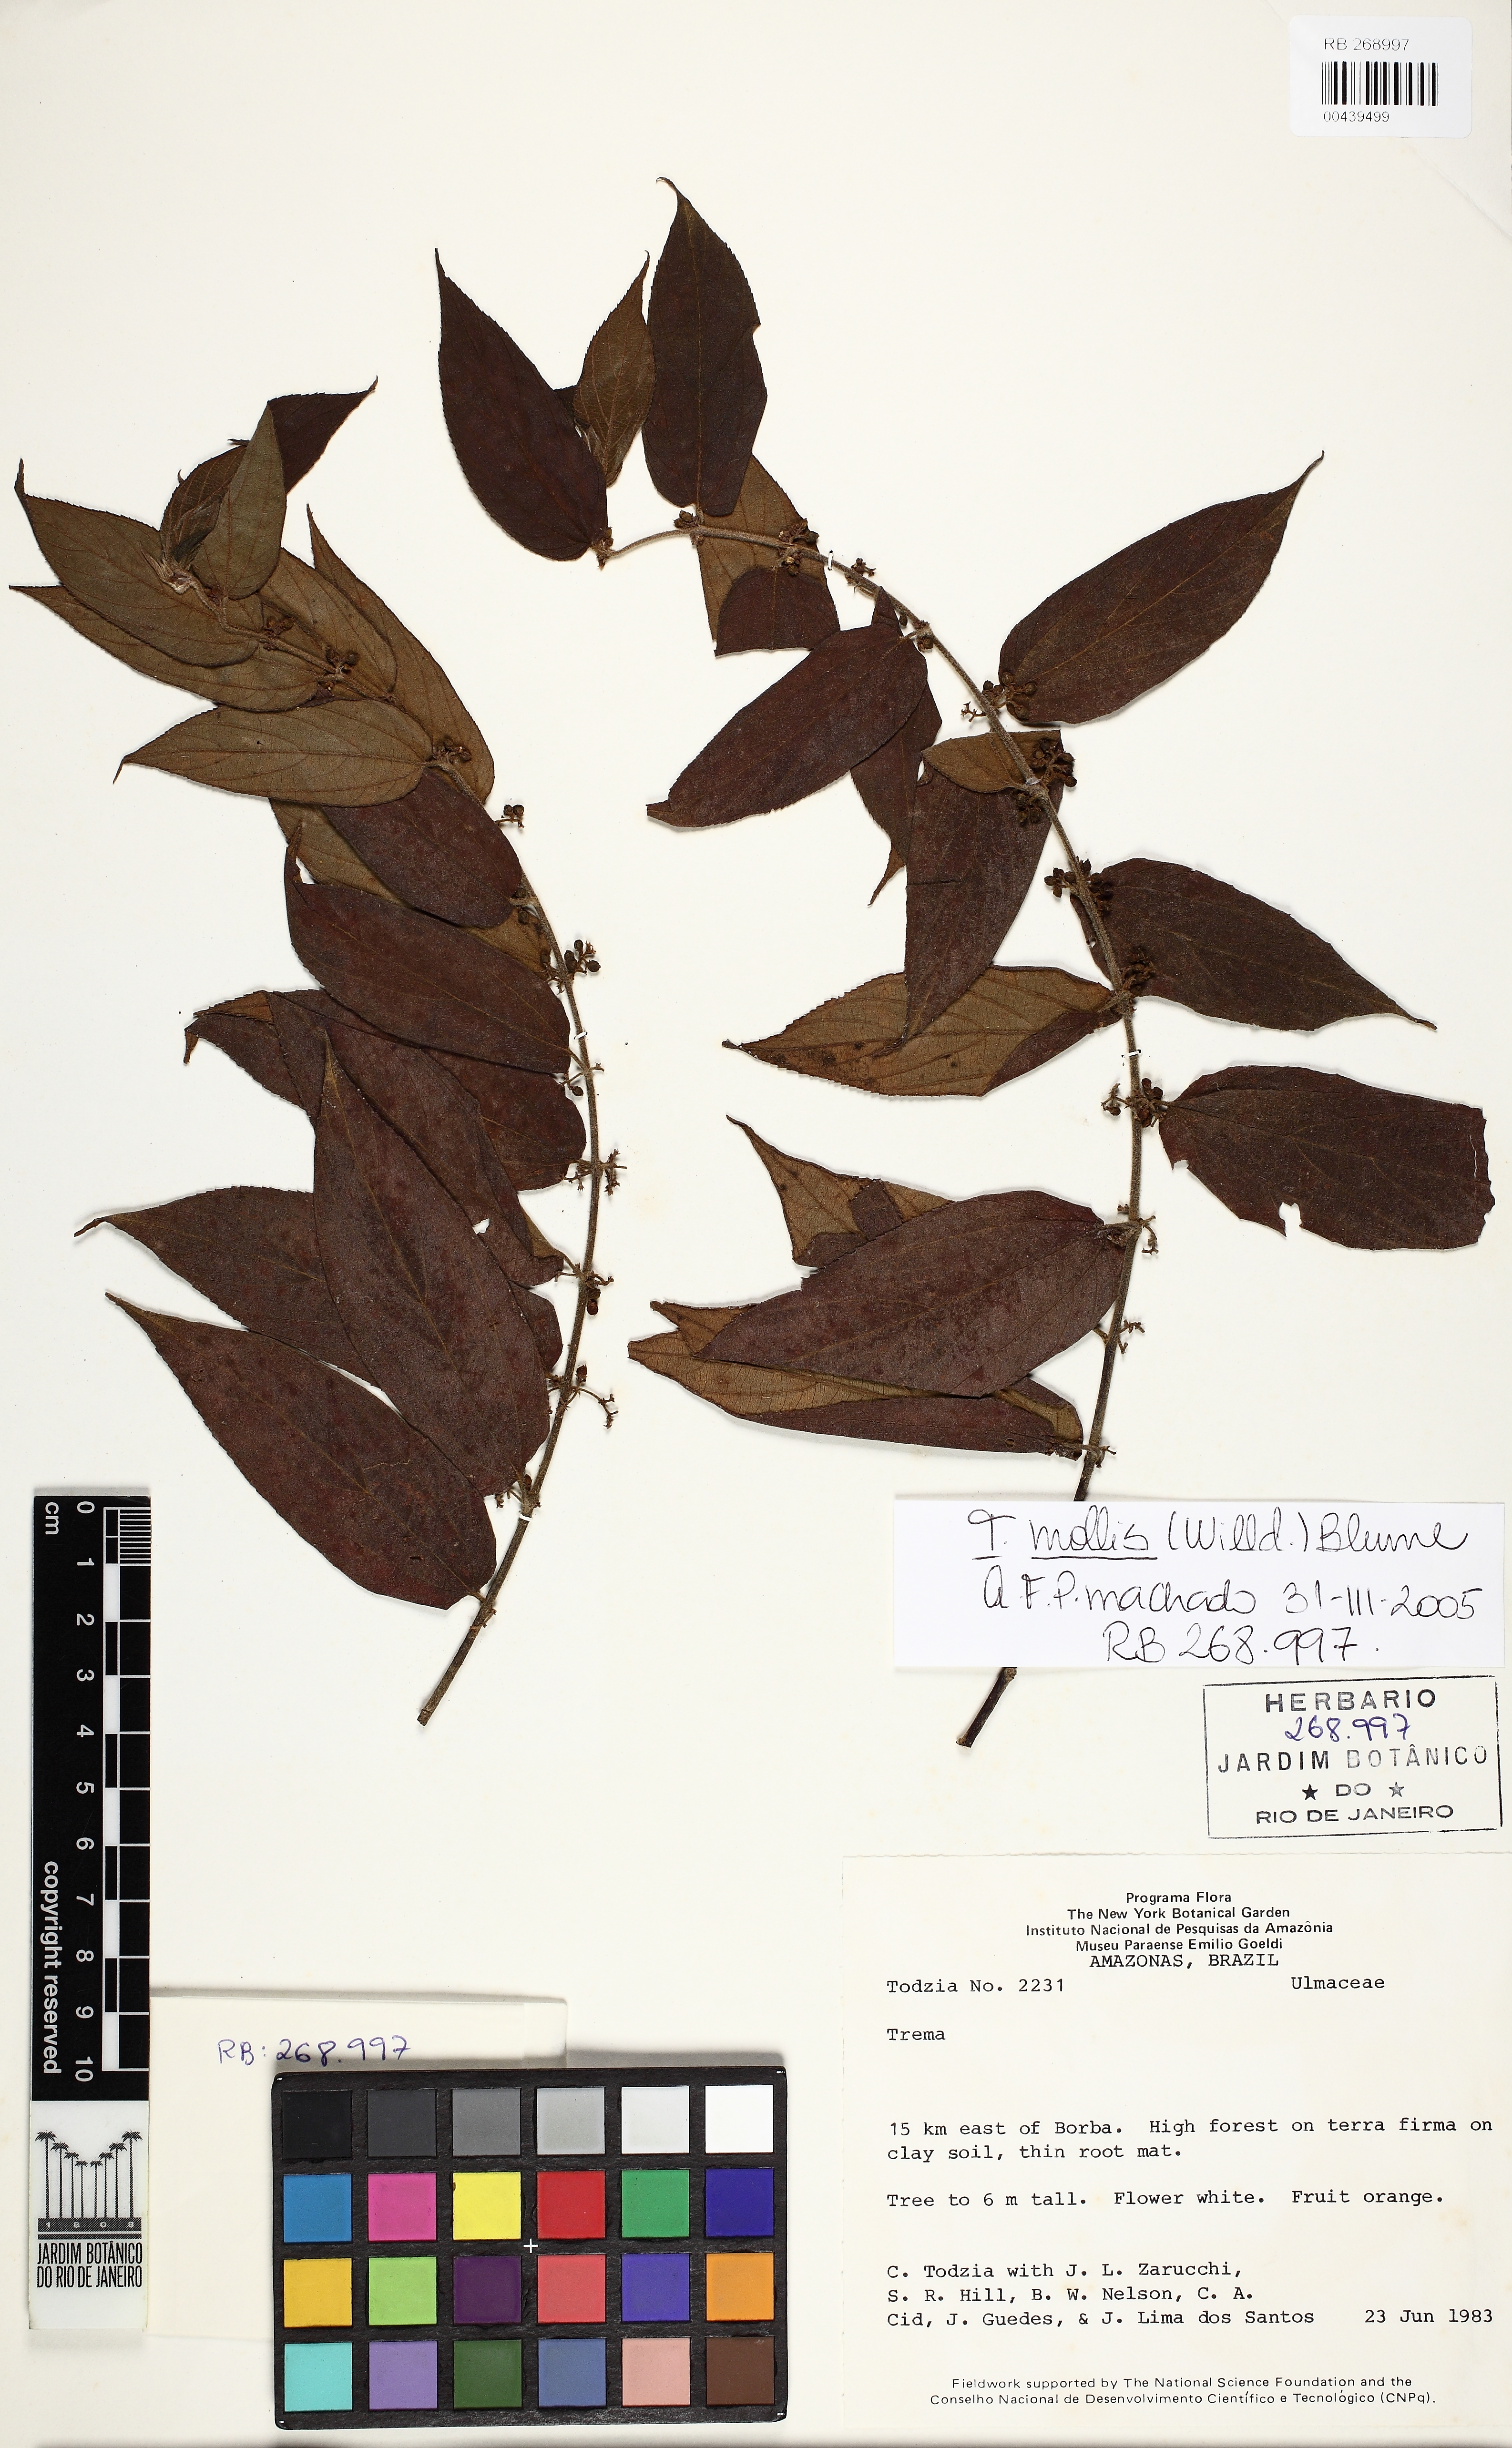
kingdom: Plantae
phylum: Tracheophyta
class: Magnoliopsida
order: Rosales
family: Cannabaceae
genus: Trema
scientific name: Trema micranthum
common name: Jamaican nettletree
